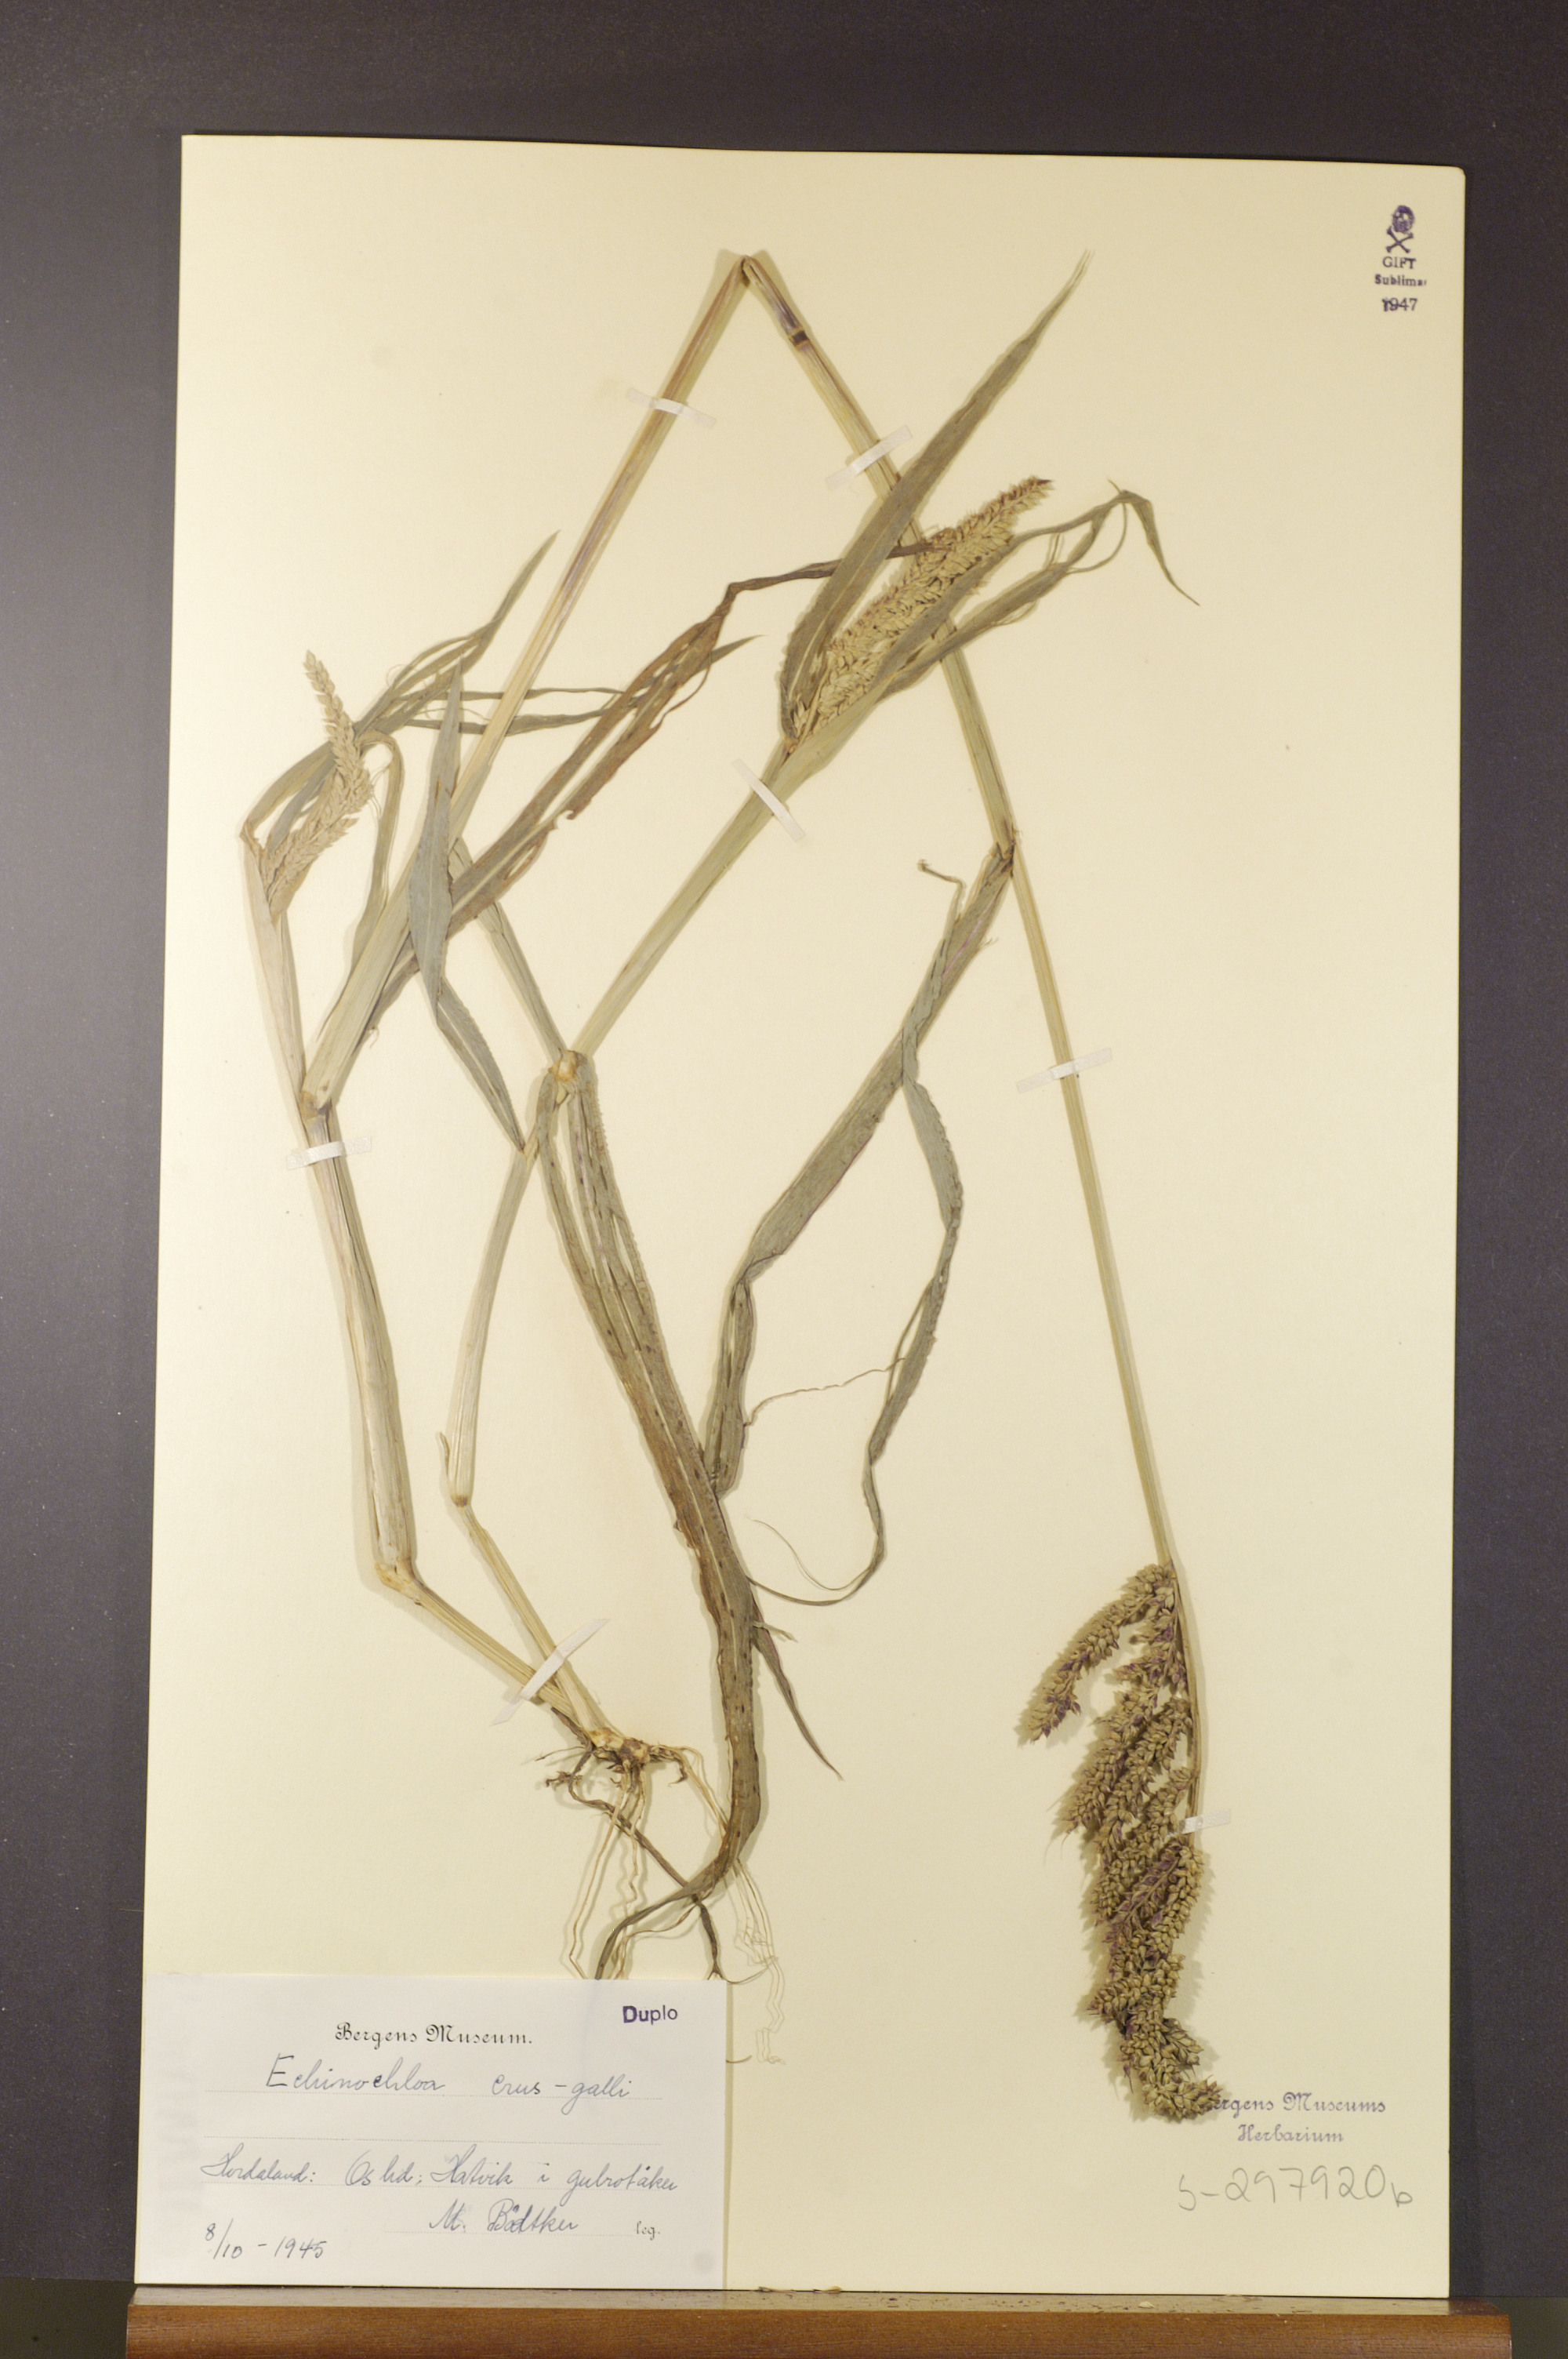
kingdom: Plantae
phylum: Tracheophyta
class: Liliopsida
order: Poales
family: Poaceae
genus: Echinochloa
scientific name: Echinochloa crus-galli
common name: Cockspur
